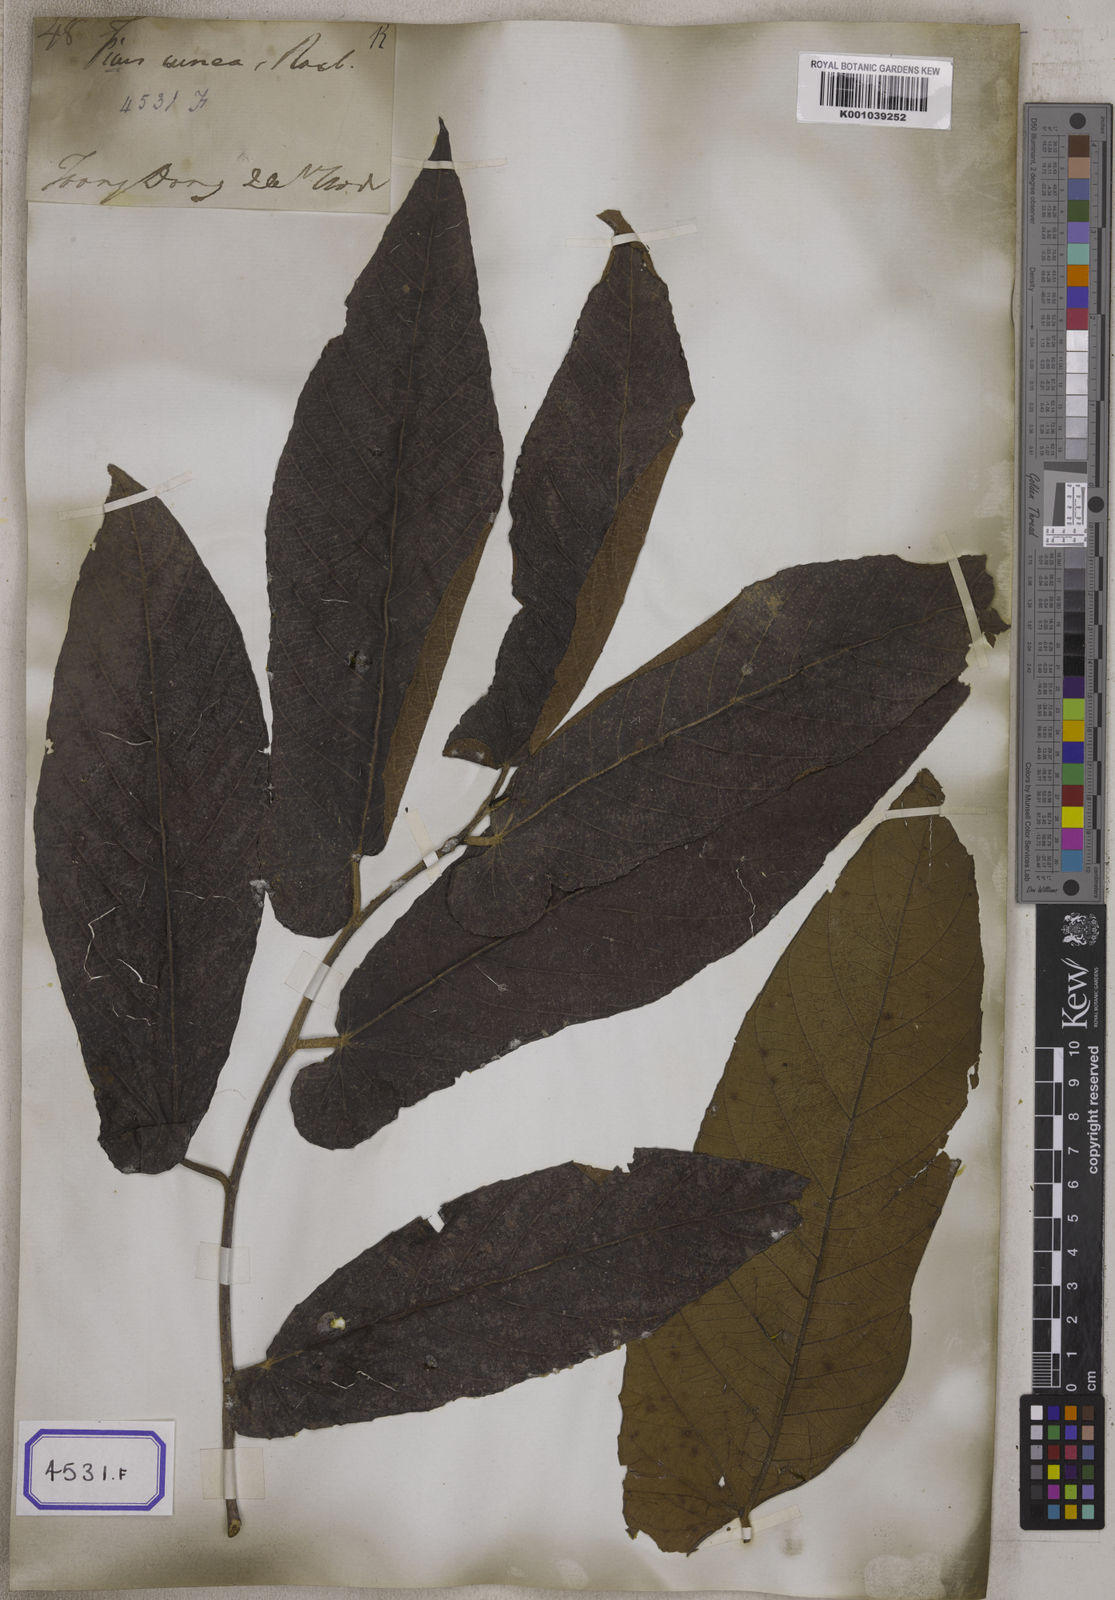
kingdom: Plantae
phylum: Tracheophyta
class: Magnoliopsida
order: Rosales
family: Moraceae
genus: Ficus
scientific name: Ficus semicordata
